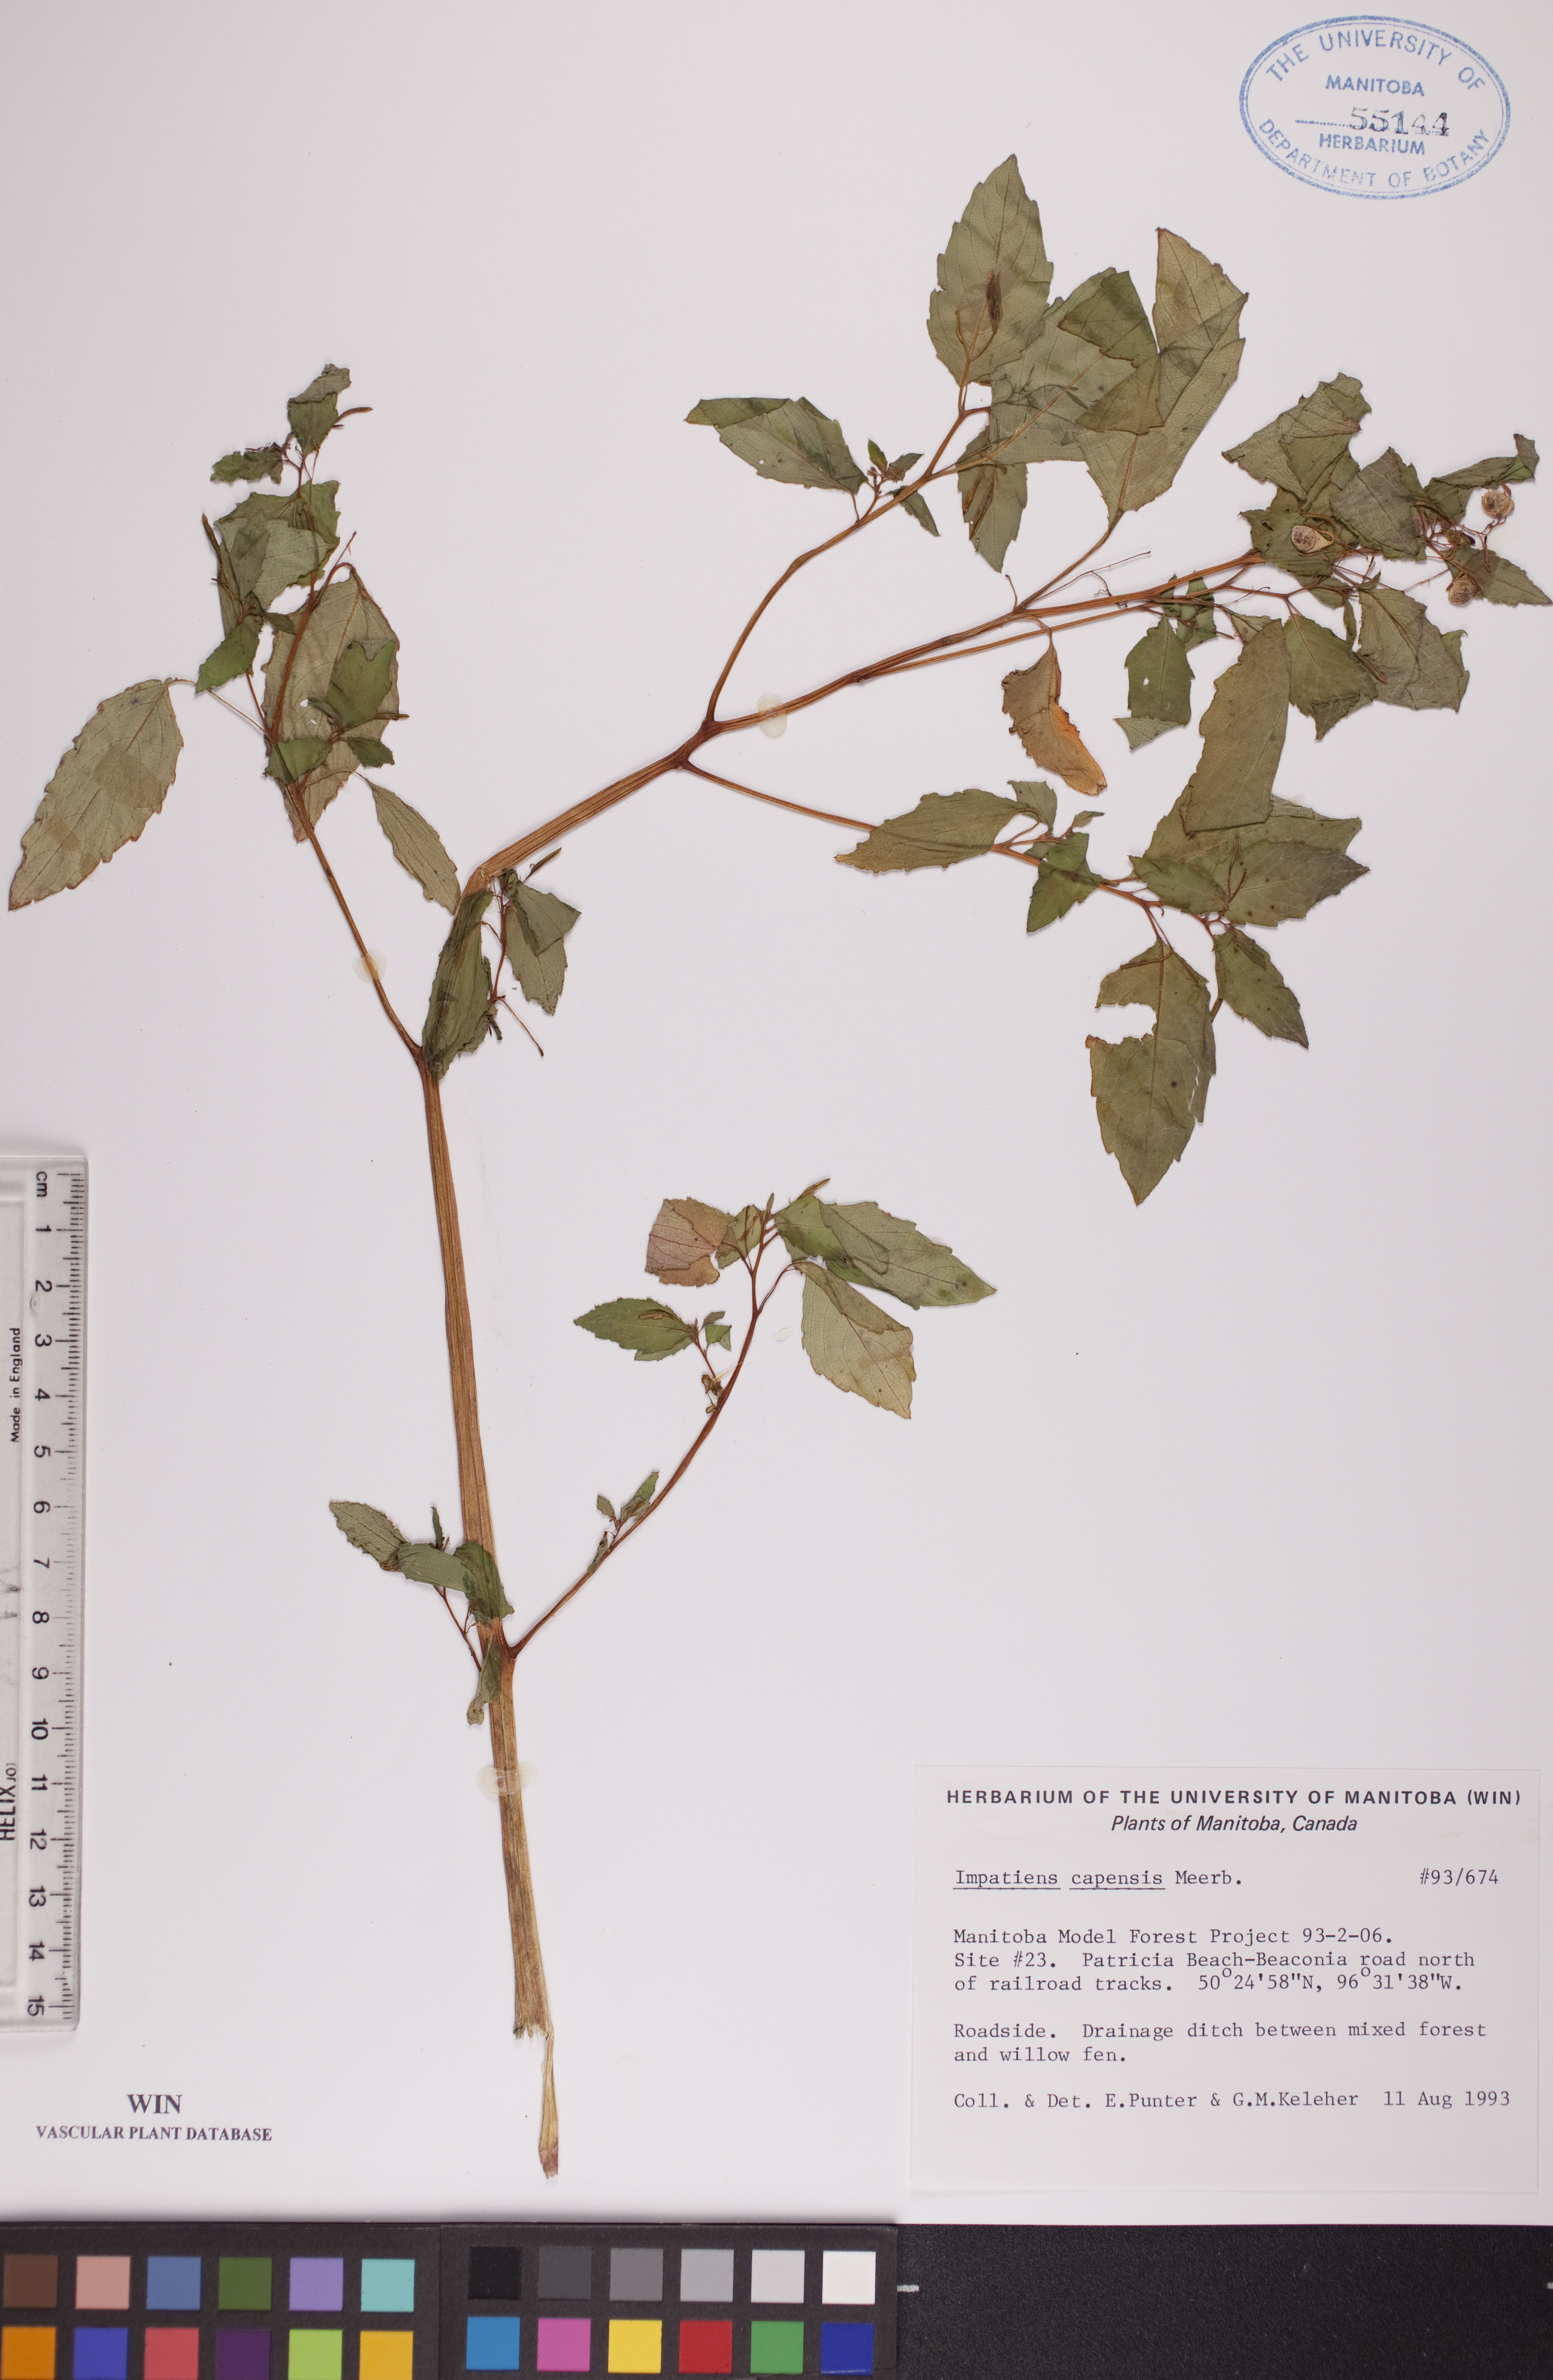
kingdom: Plantae
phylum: Tracheophyta
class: Magnoliopsida
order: Ericales
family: Balsaminaceae
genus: Impatiens
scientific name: Impatiens capensis
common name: Orange balsam
